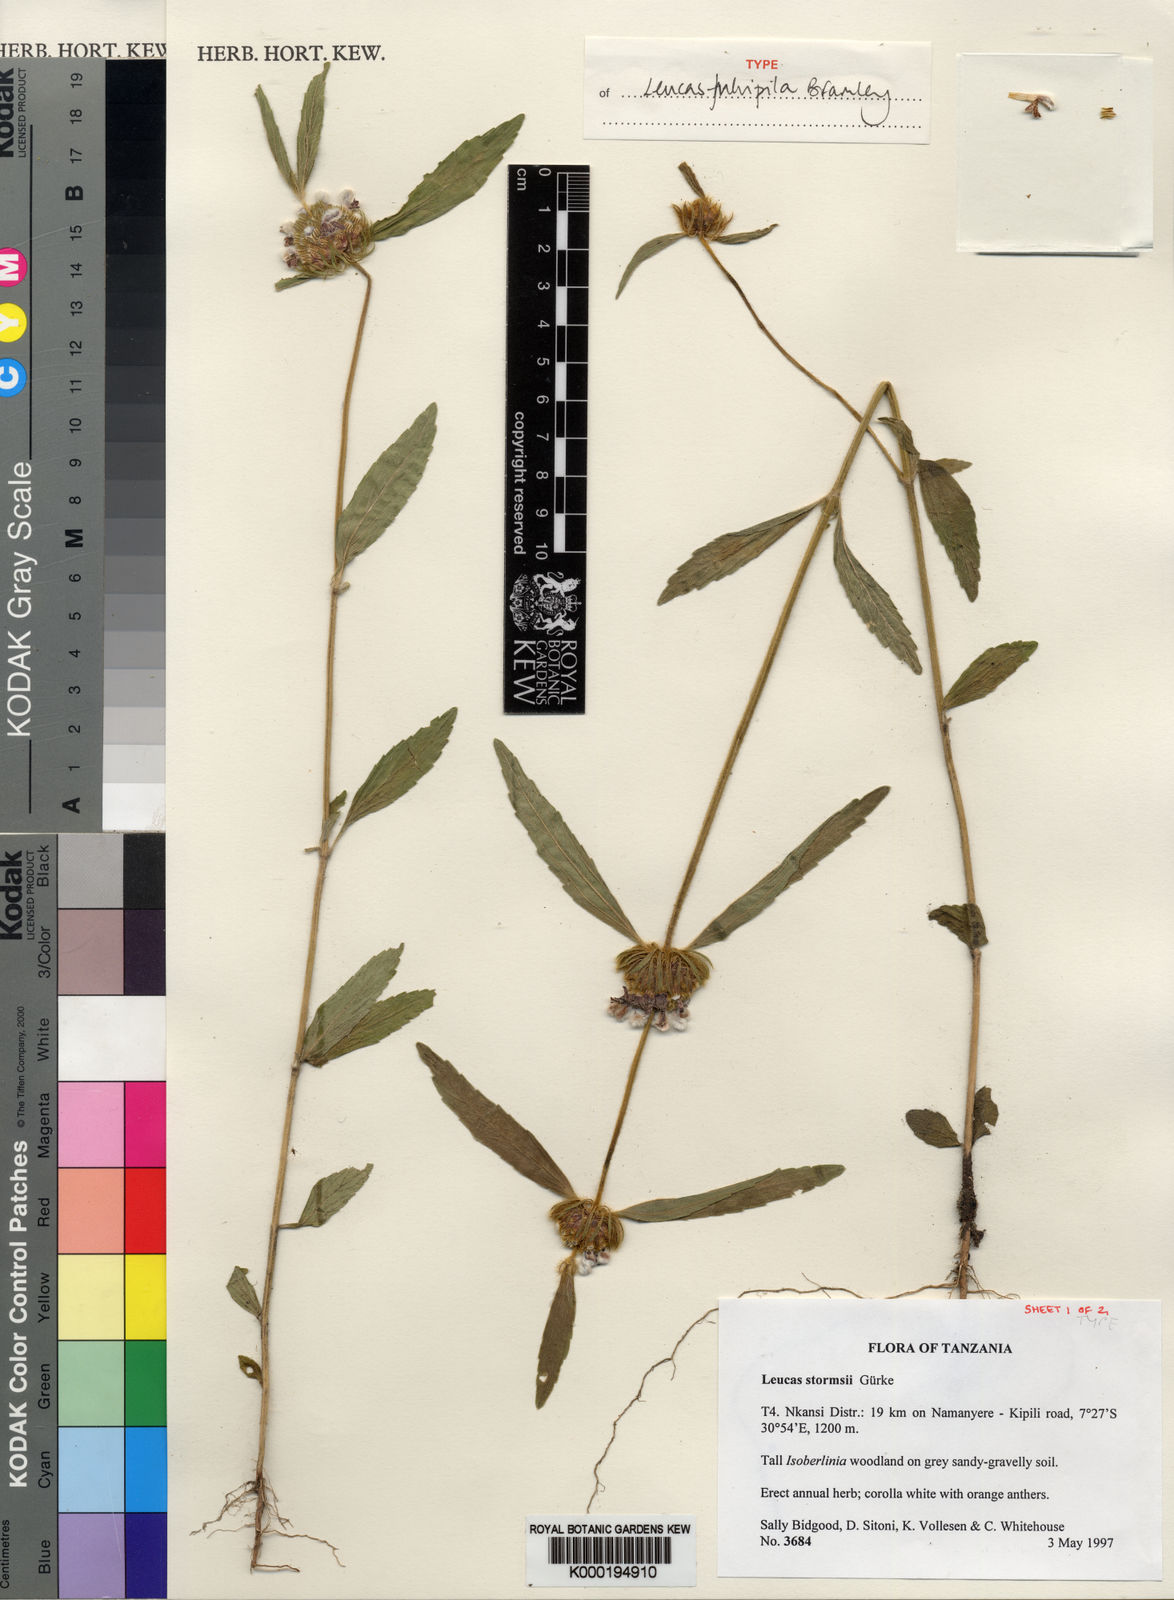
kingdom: Plantae
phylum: Tracheophyta
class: Magnoliopsida
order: Lamiales
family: Lamiaceae
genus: Leucas
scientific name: Leucas
